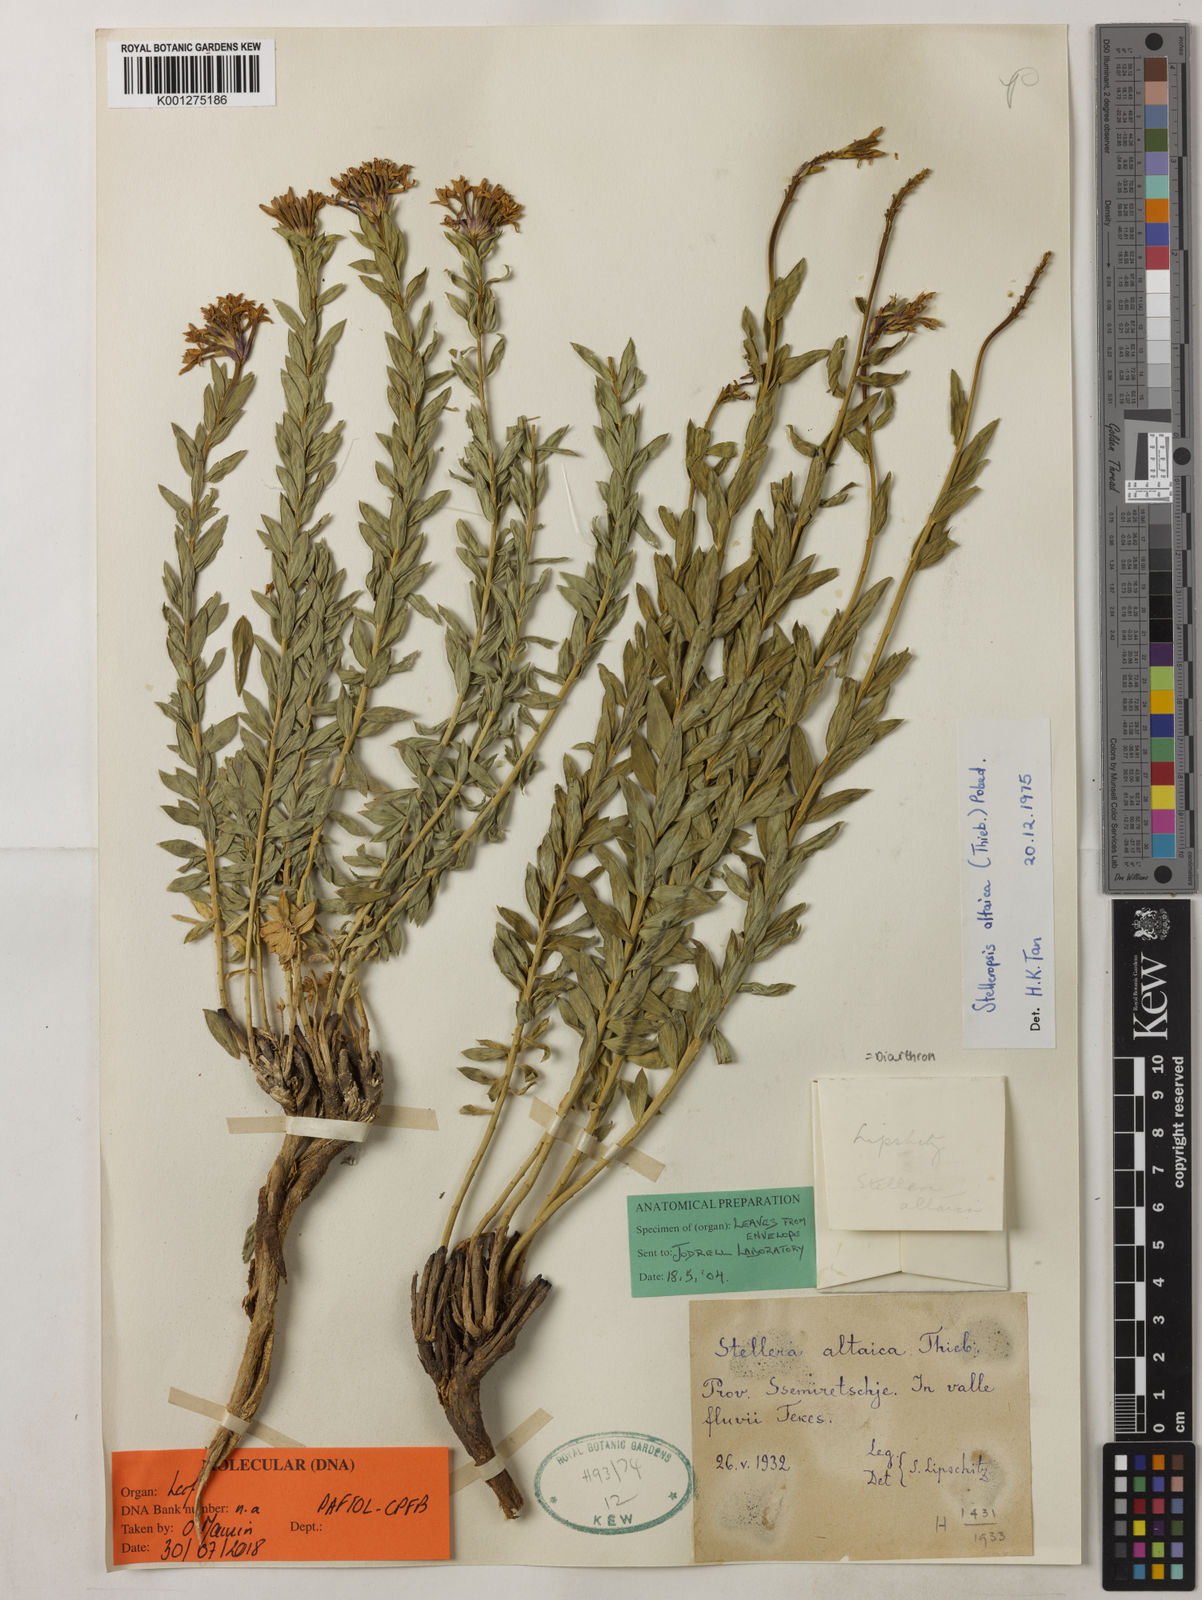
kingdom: Plantae
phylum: Tracheophyta
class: Magnoliopsida
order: Malvales
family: Thymelaeaceae
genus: Diarthron
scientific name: Diarthron
